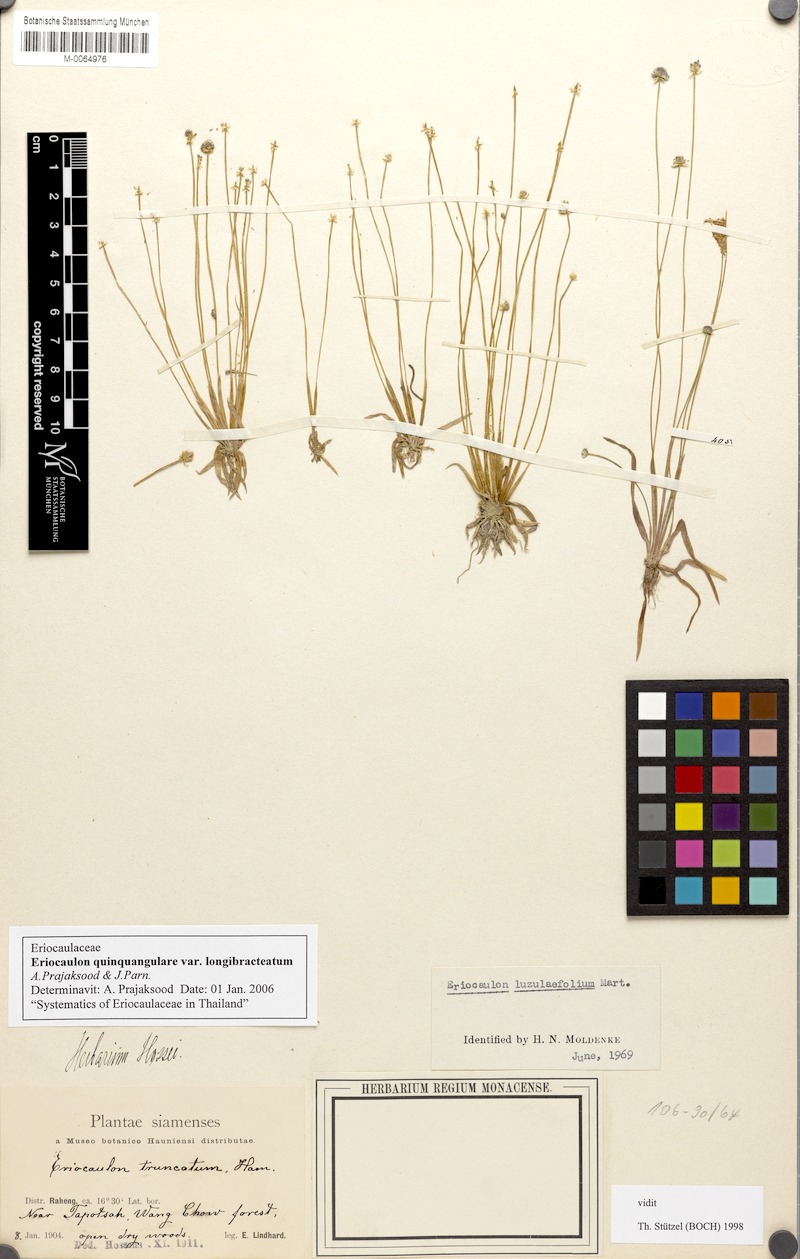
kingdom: Plantae
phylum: Tracheophyta
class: Liliopsida
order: Poales
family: Eriocaulaceae
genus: Eriocaulon
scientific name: Eriocaulon quinquangulare
